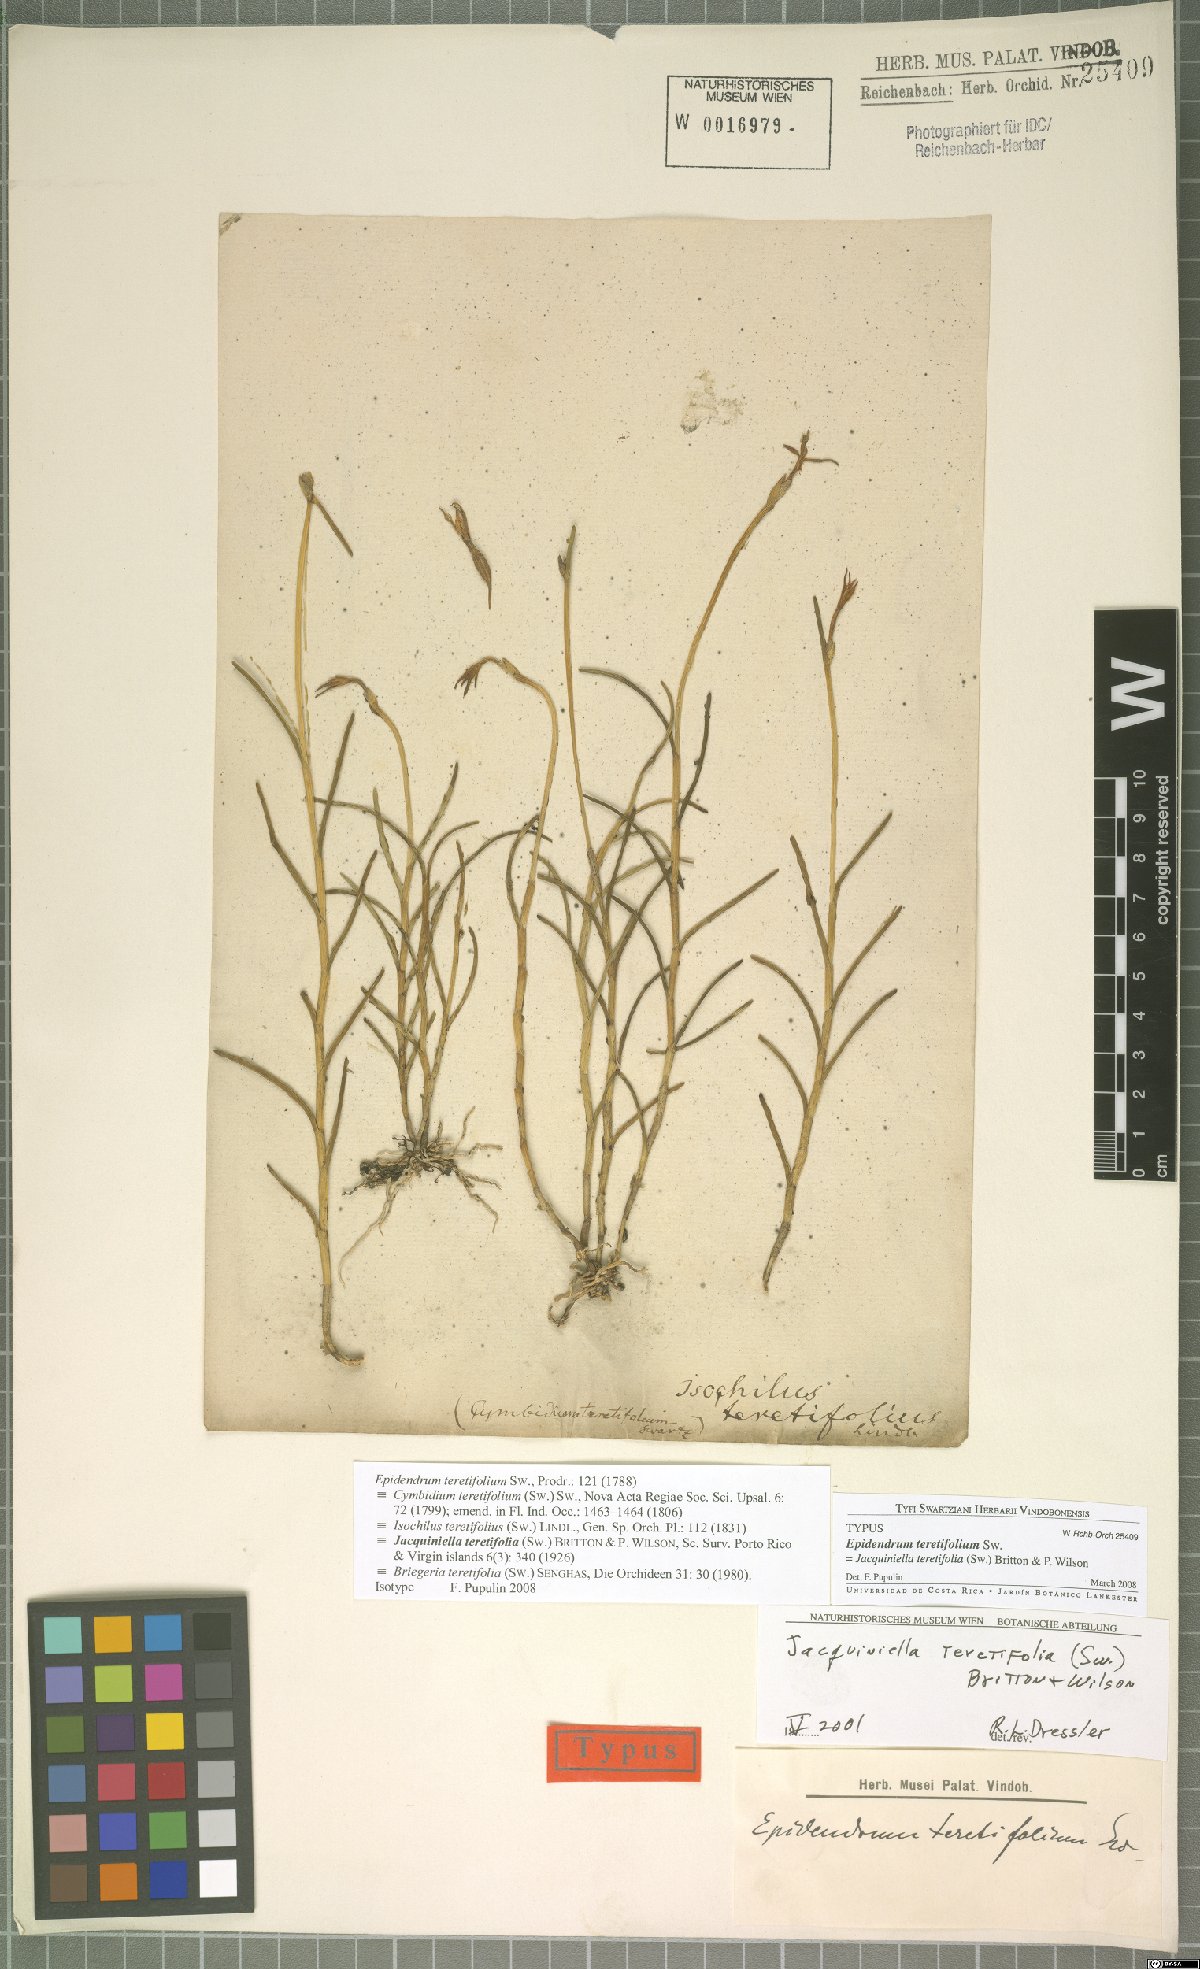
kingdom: Plantae
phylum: Tracheophyta
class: Liliopsida
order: Asparagales
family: Orchidaceae
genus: Jacquiniella
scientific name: Jacquiniella teretifolia
